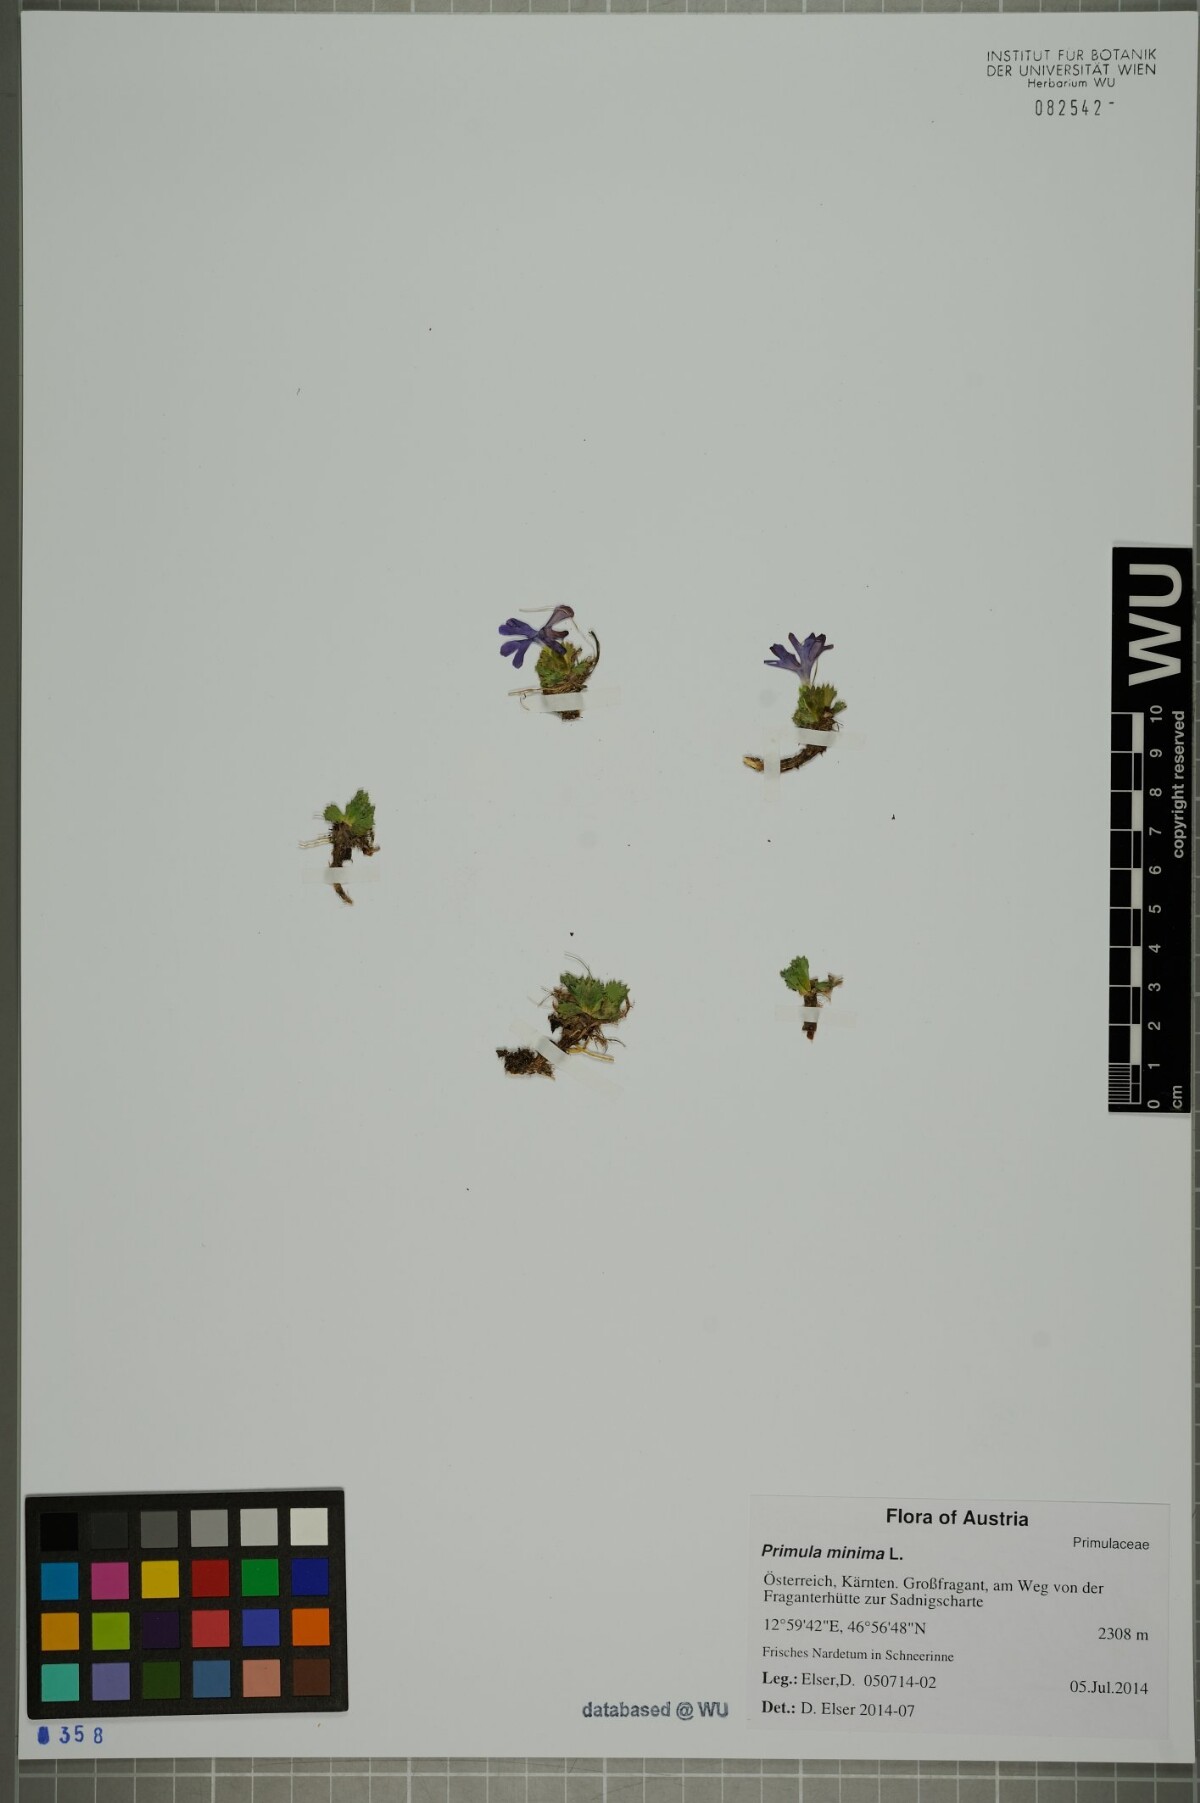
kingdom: Plantae
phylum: Tracheophyta
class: Magnoliopsida
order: Ericales
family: Primulaceae
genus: Primula
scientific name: Primula minima
